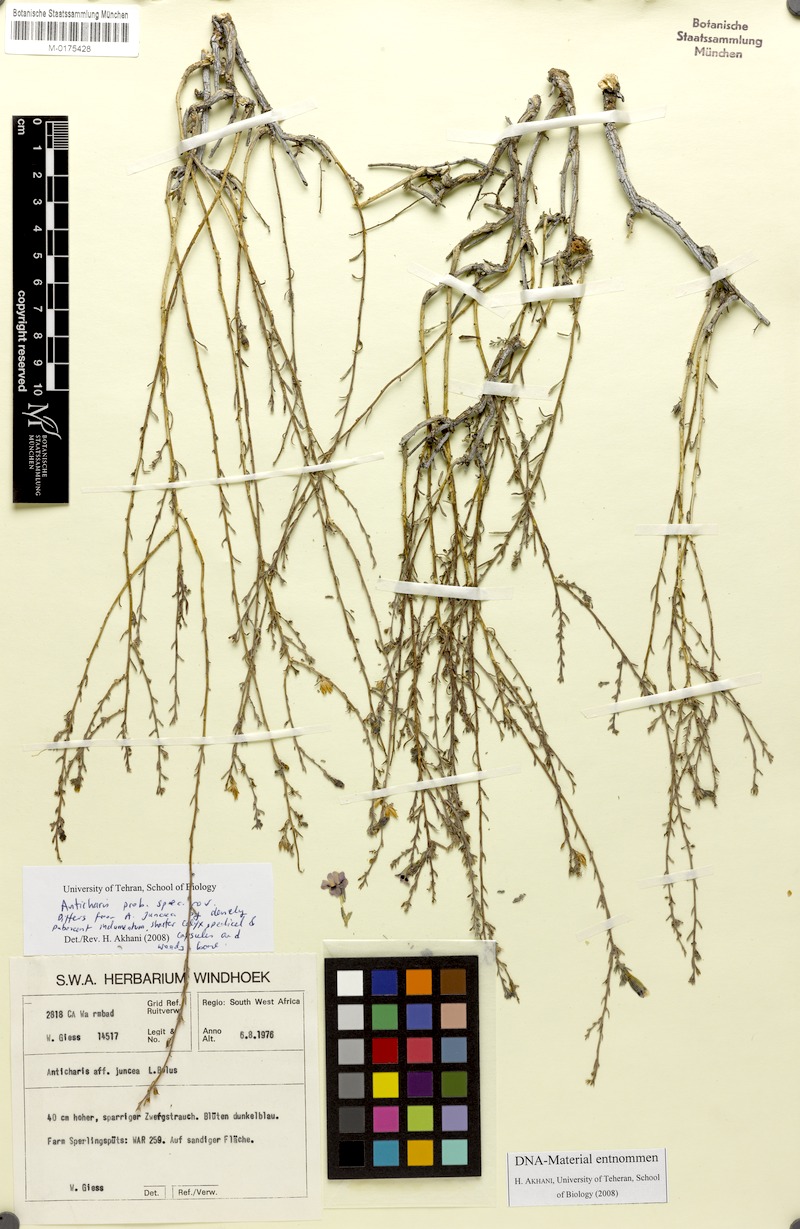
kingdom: Plantae
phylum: Tracheophyta
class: Magnoliopsida
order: Lamiales
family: Scrophulariaceae
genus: Anticharis
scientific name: Anticharis juncea
